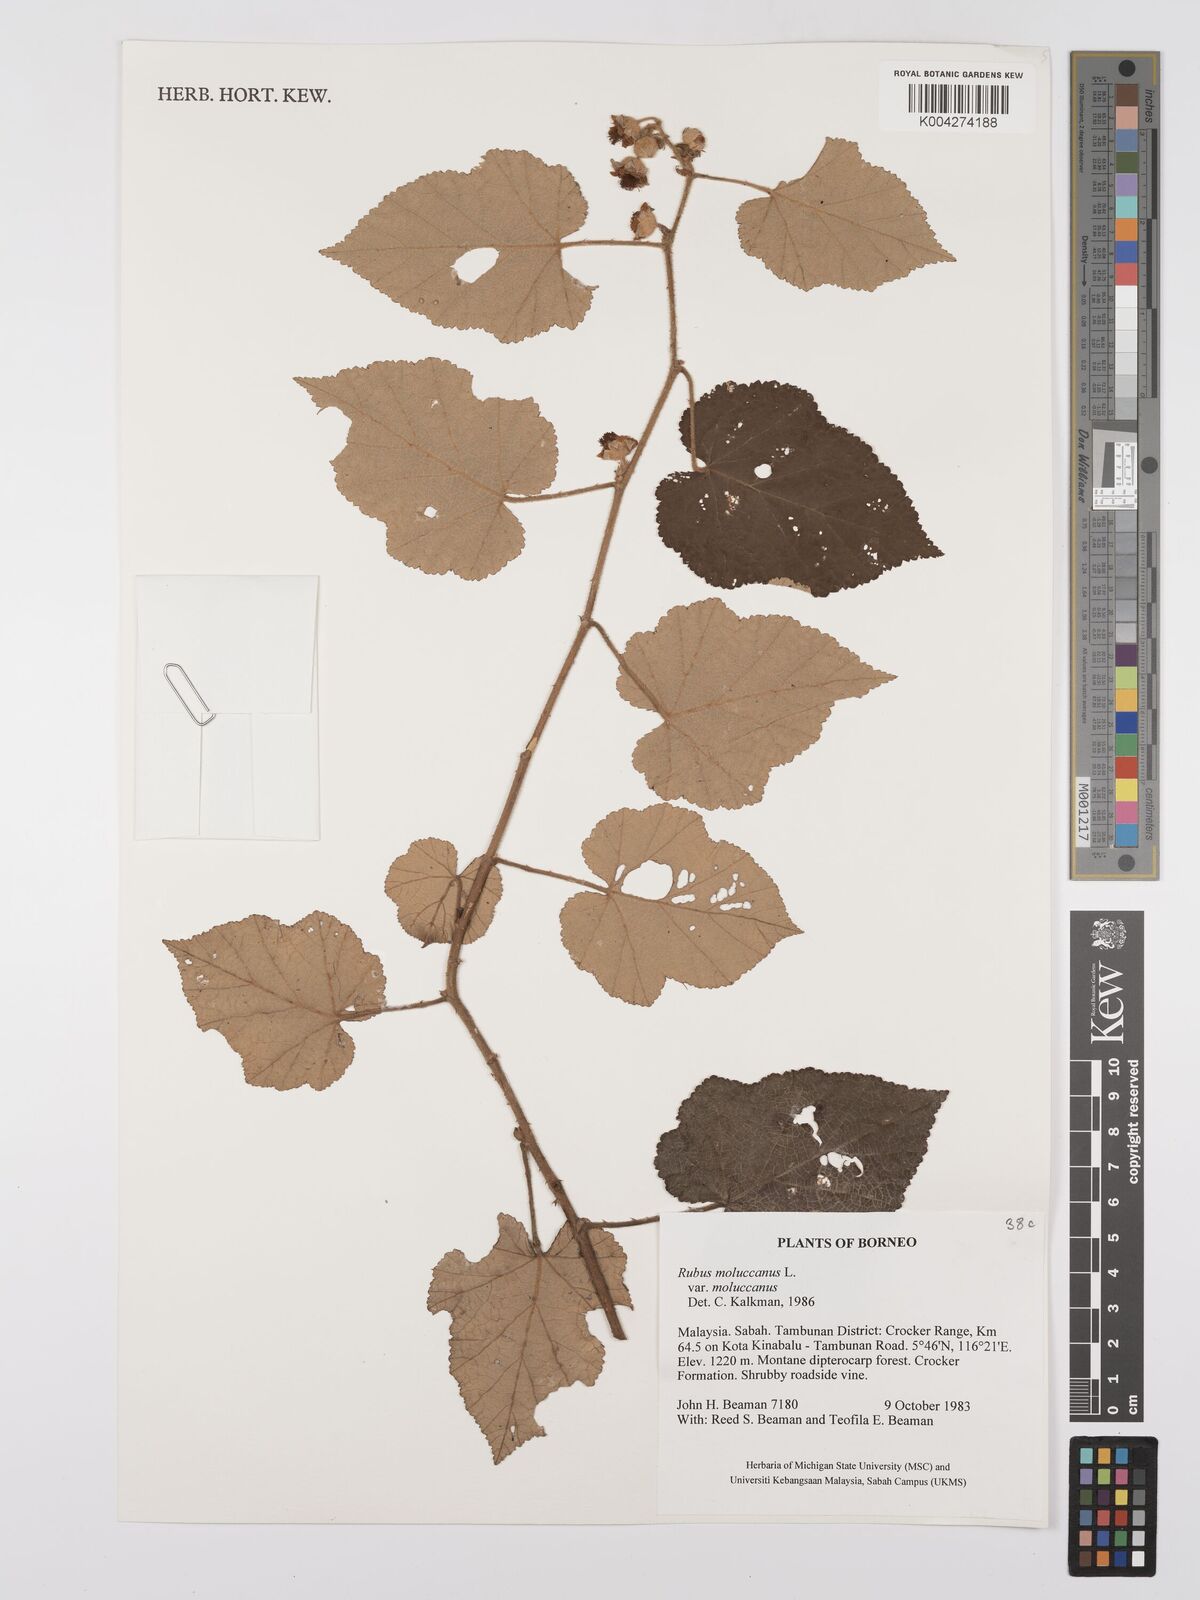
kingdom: Plantae
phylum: Tracheophyta
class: Magnoliopsida
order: Rosales
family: Rosaceae
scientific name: Rosaceae
